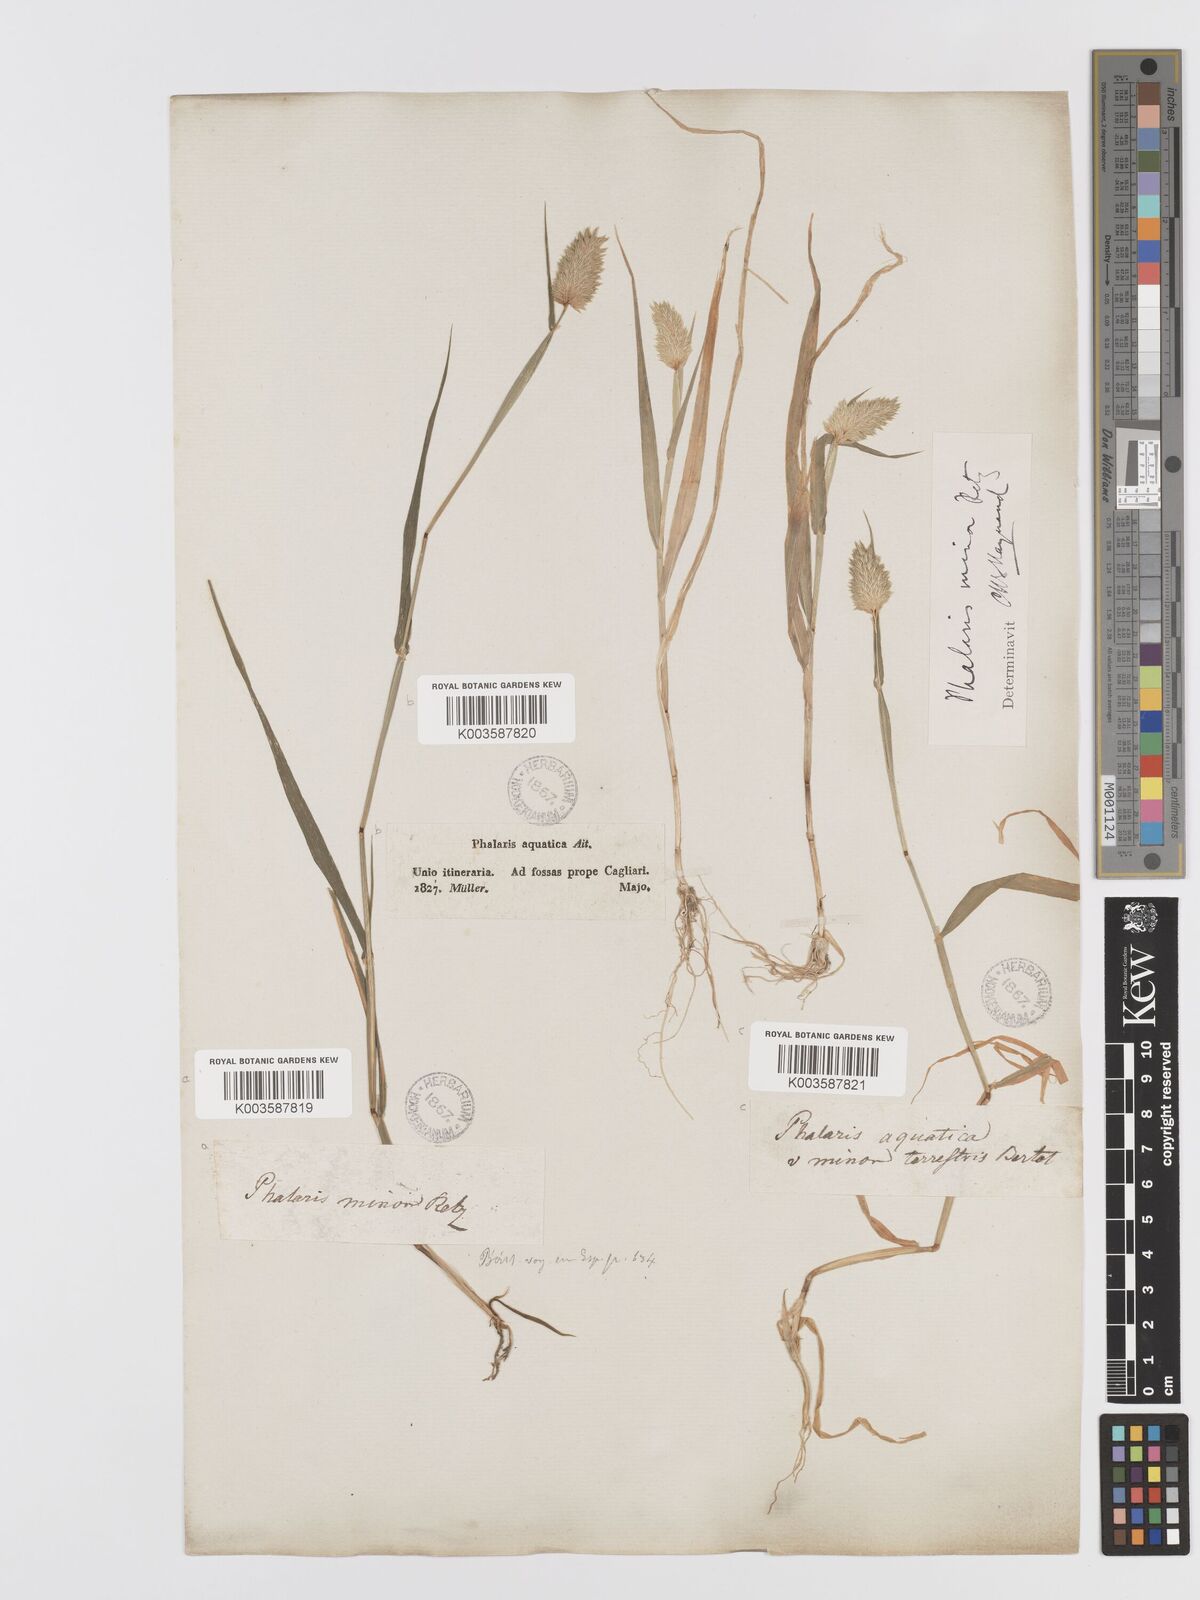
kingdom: Plantae
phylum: Tracheophyta
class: Liliopsida
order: Poales
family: Poaceae
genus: Phalaris
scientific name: Phalaris minor
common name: Littleseed canarygrass
